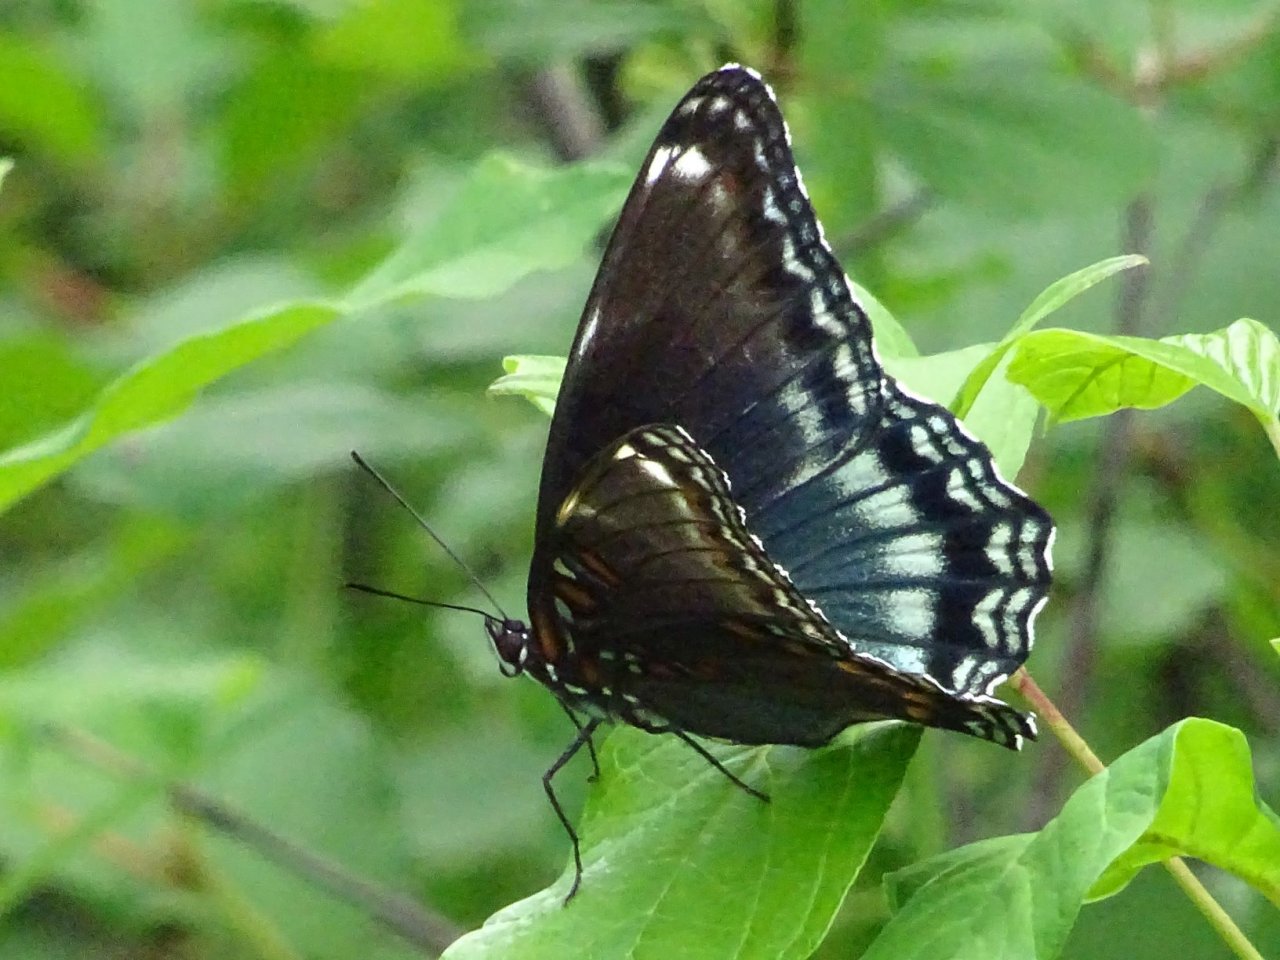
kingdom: Animalia
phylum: Arthropoda
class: Insecta
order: Lepidoptera
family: Nymphalidae
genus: Limenitis
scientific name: Limenitis
